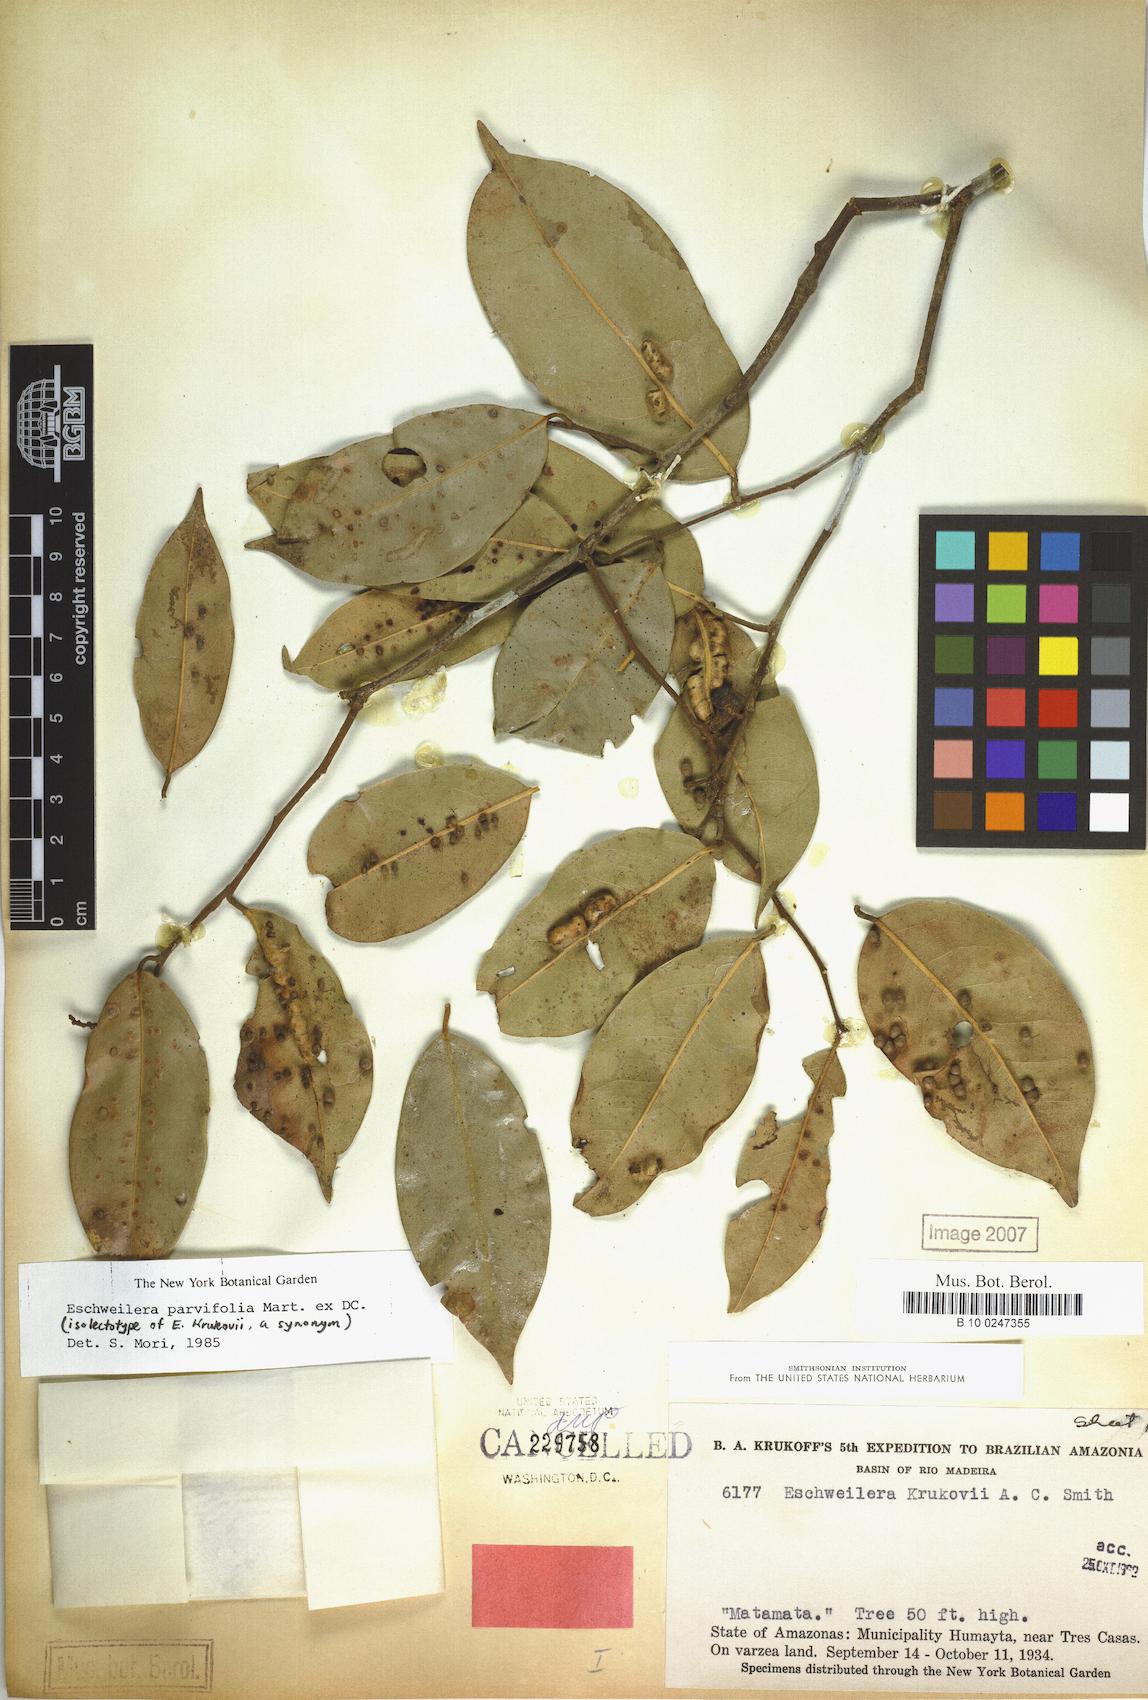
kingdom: Plantae
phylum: Tracheophyta
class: Magnoliopsida
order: Ericales
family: Lecythidaceae
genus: Eschweilera
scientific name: Eschweilera parvifolia
